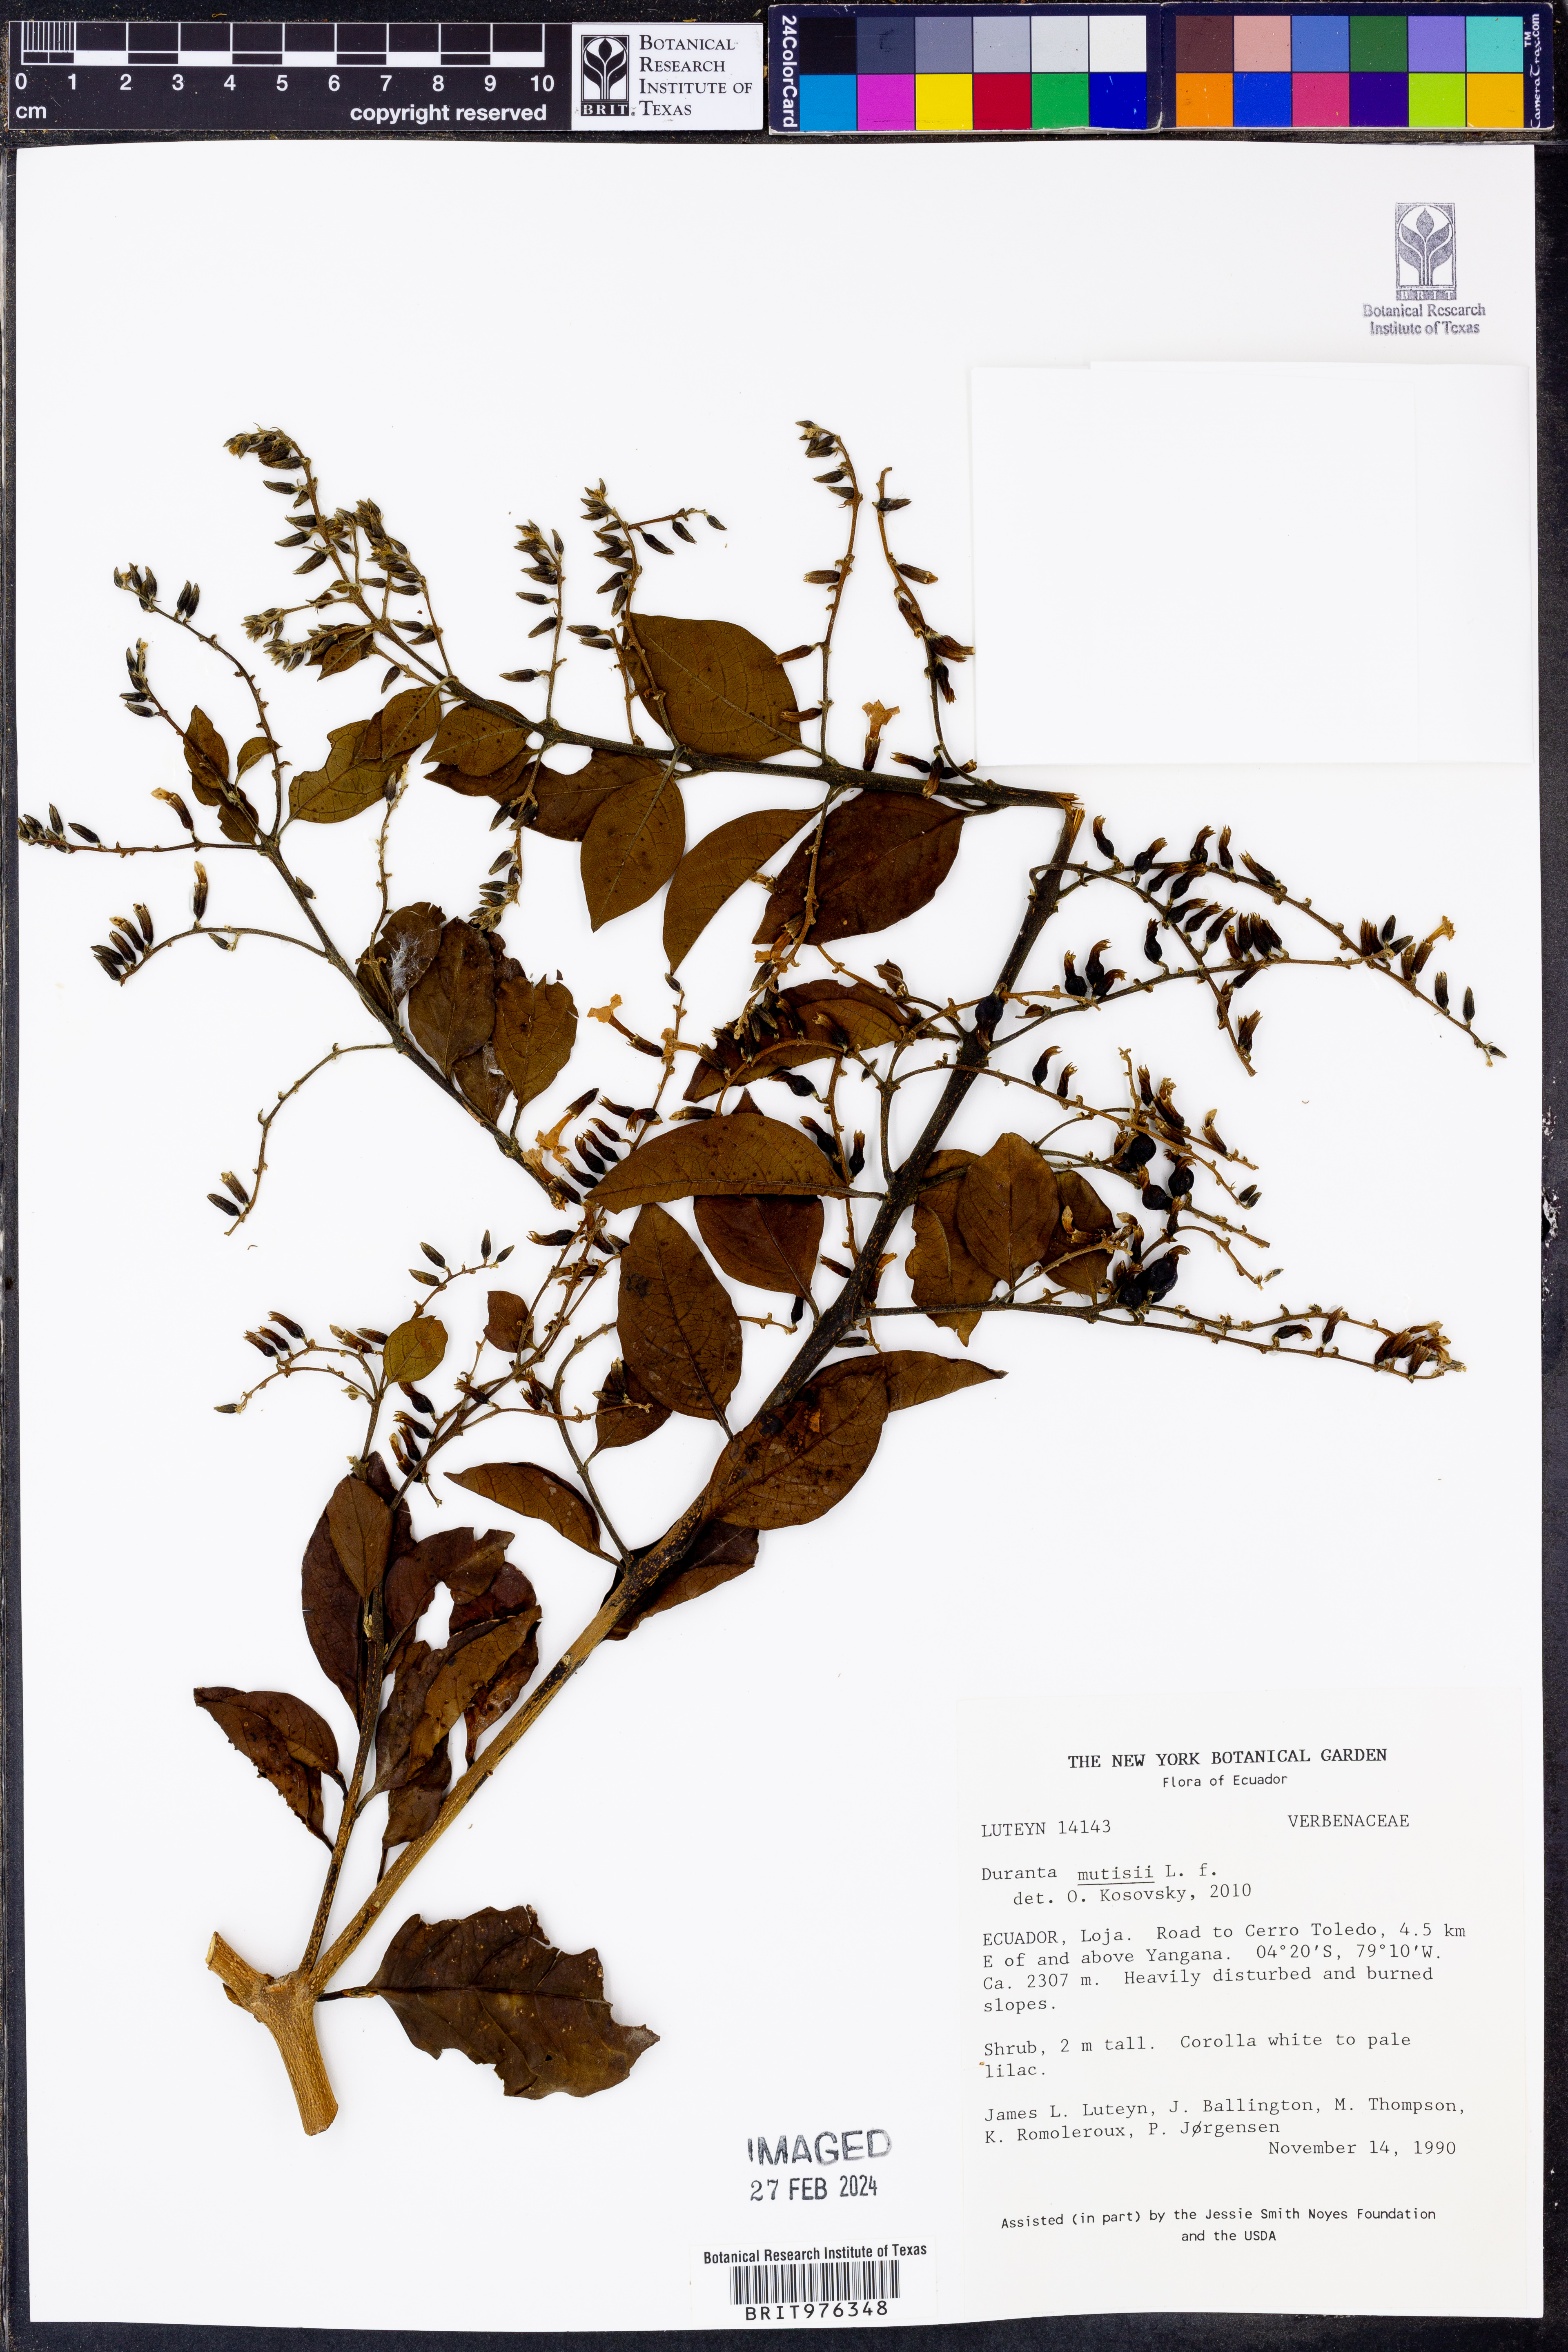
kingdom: Plantae
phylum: Tracheophyta
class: Magnoliopsida
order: Lamiales
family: Verbenaceae
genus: Duranta
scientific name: Duranta
